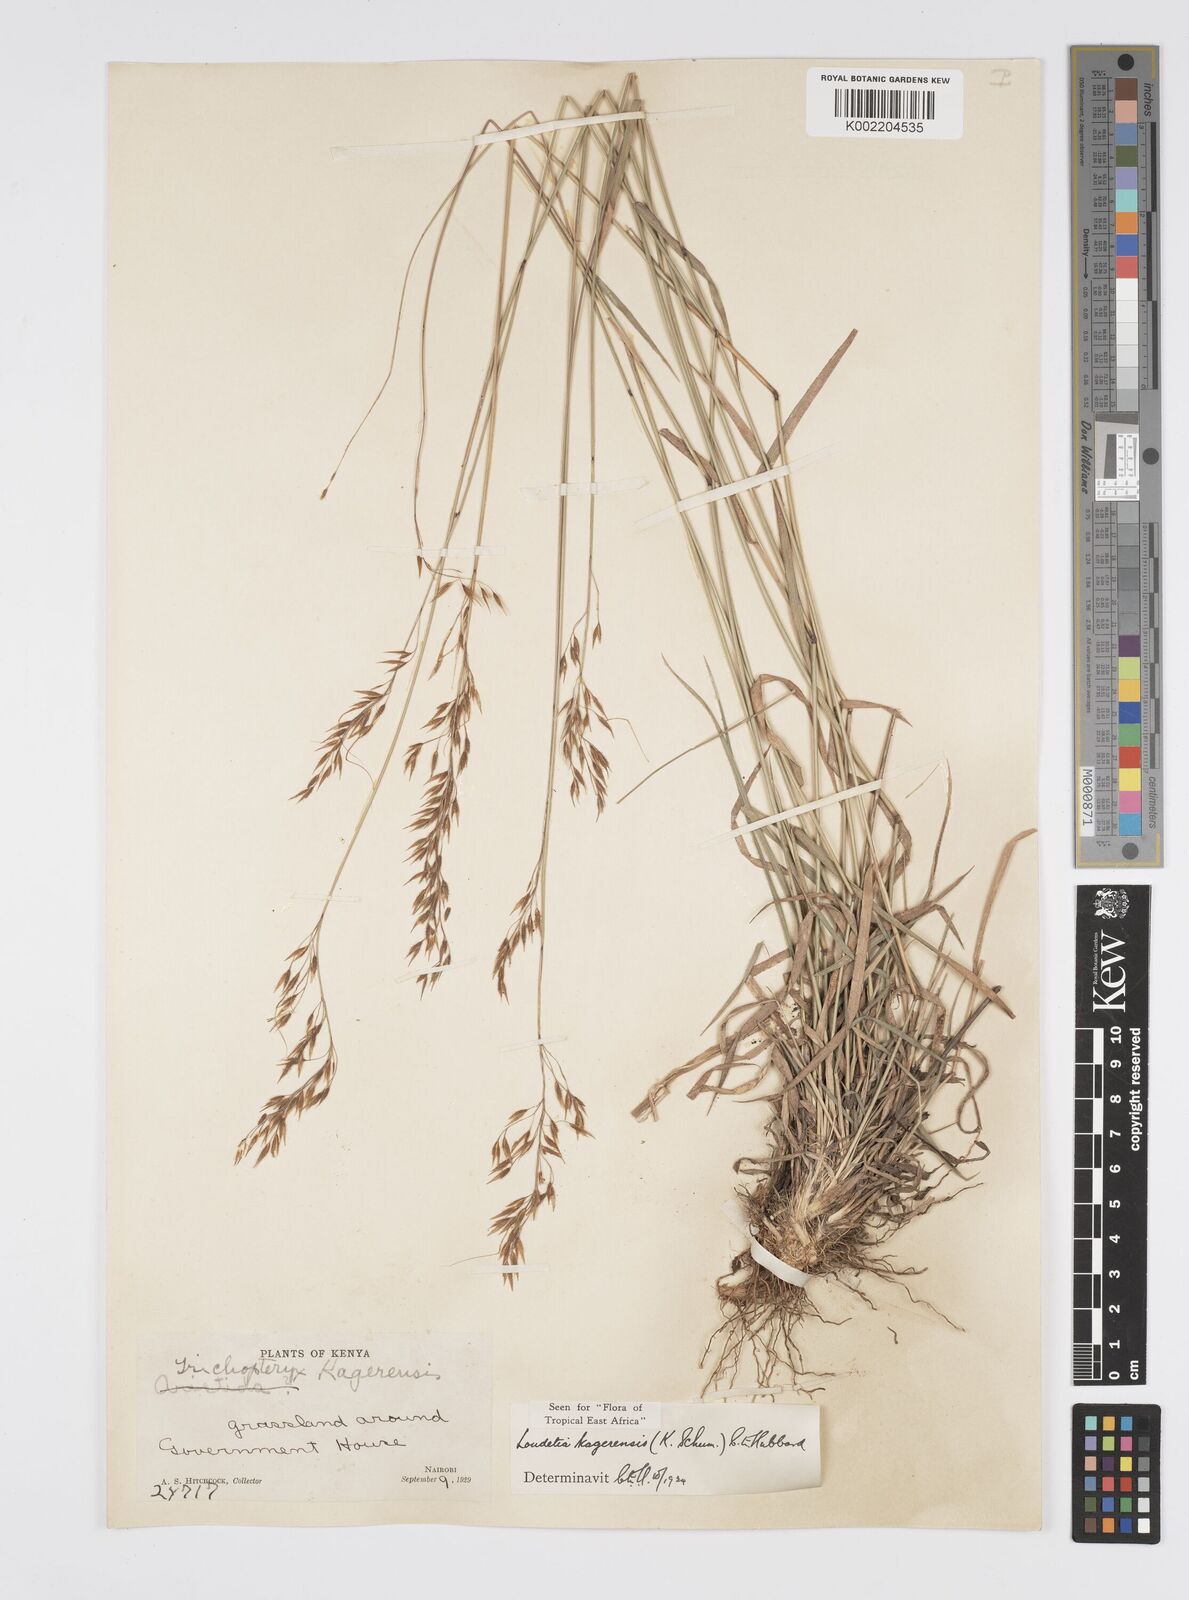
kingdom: Plantae
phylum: Tracheophyta
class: Liliopsida
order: Poales
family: Poaceae
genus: Loudetia
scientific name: Loudetia kagerensis
